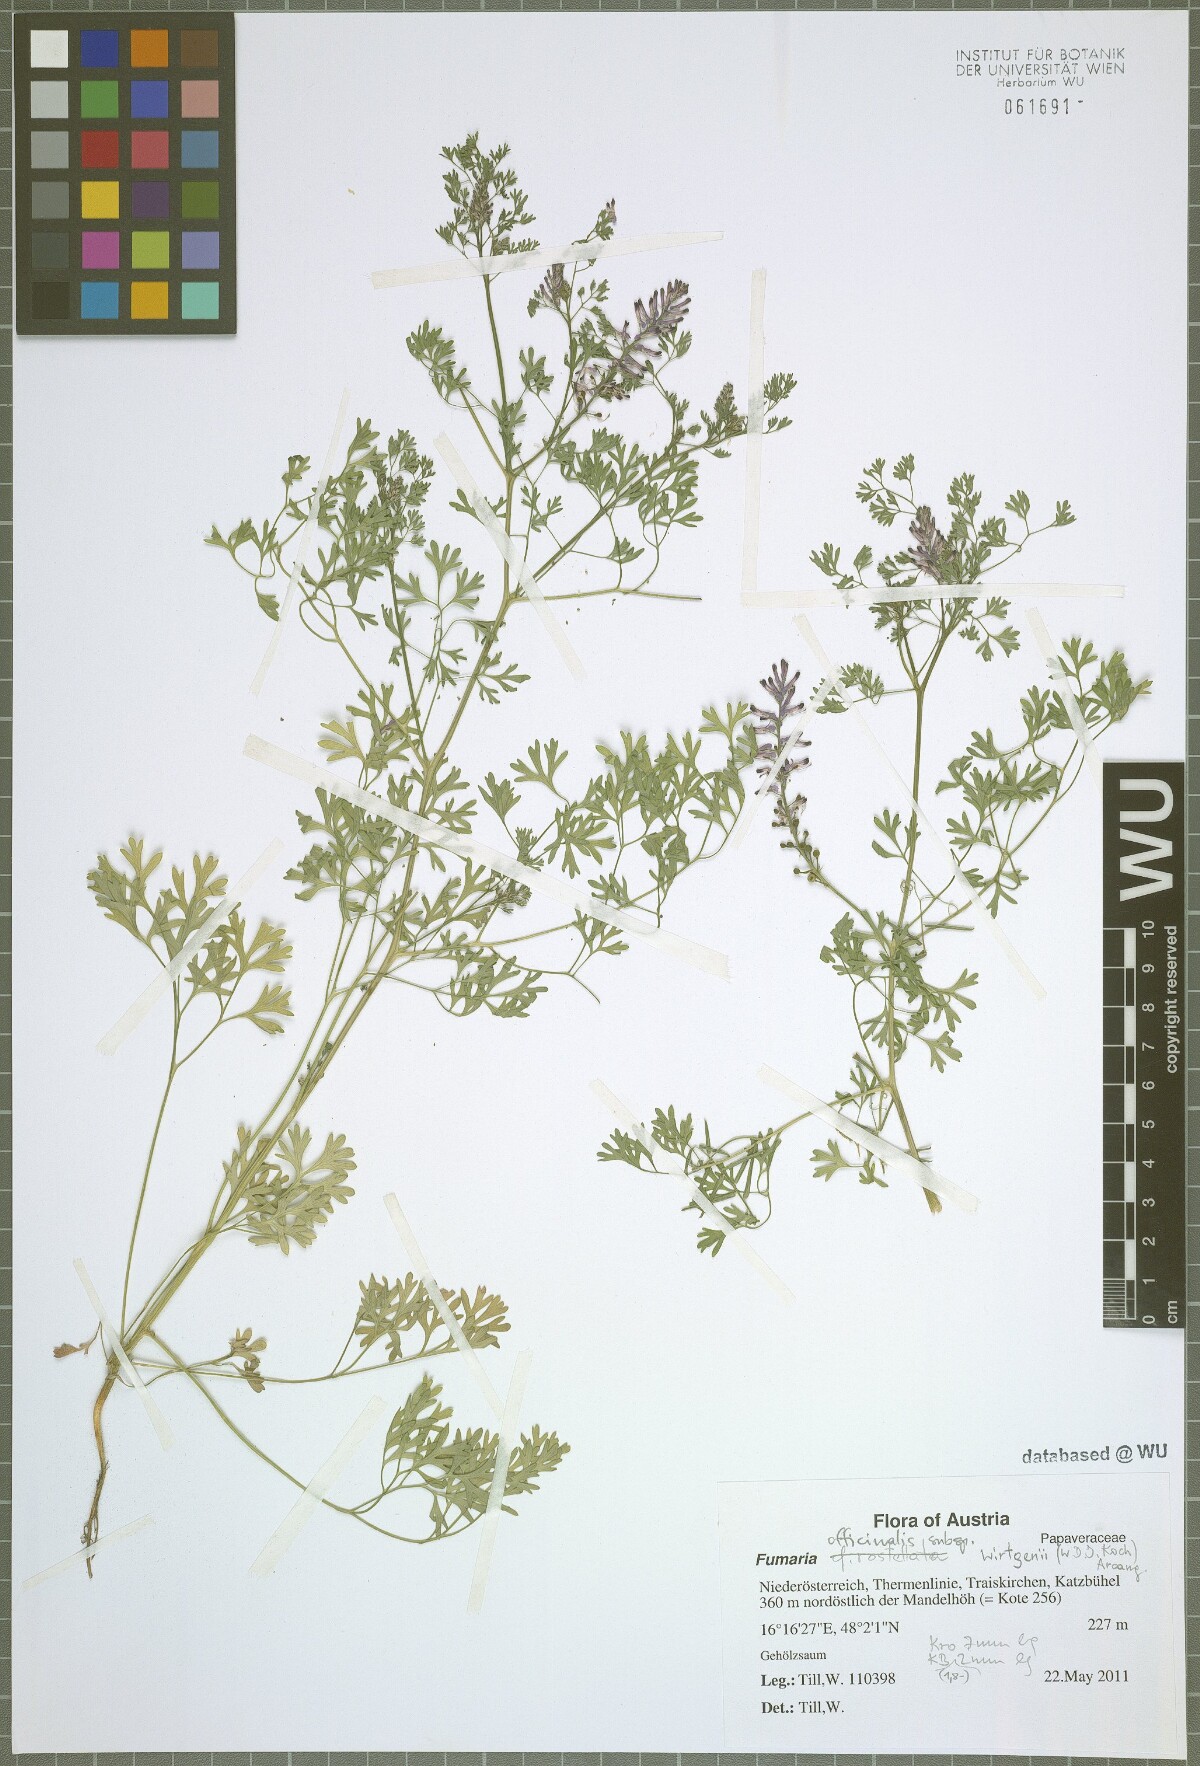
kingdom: Plantae
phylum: Tracheophyta
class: Magnoliopsida
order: Ranunculales
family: Papaveraceae
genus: Fumaria
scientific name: Fumaria wirtgenii
